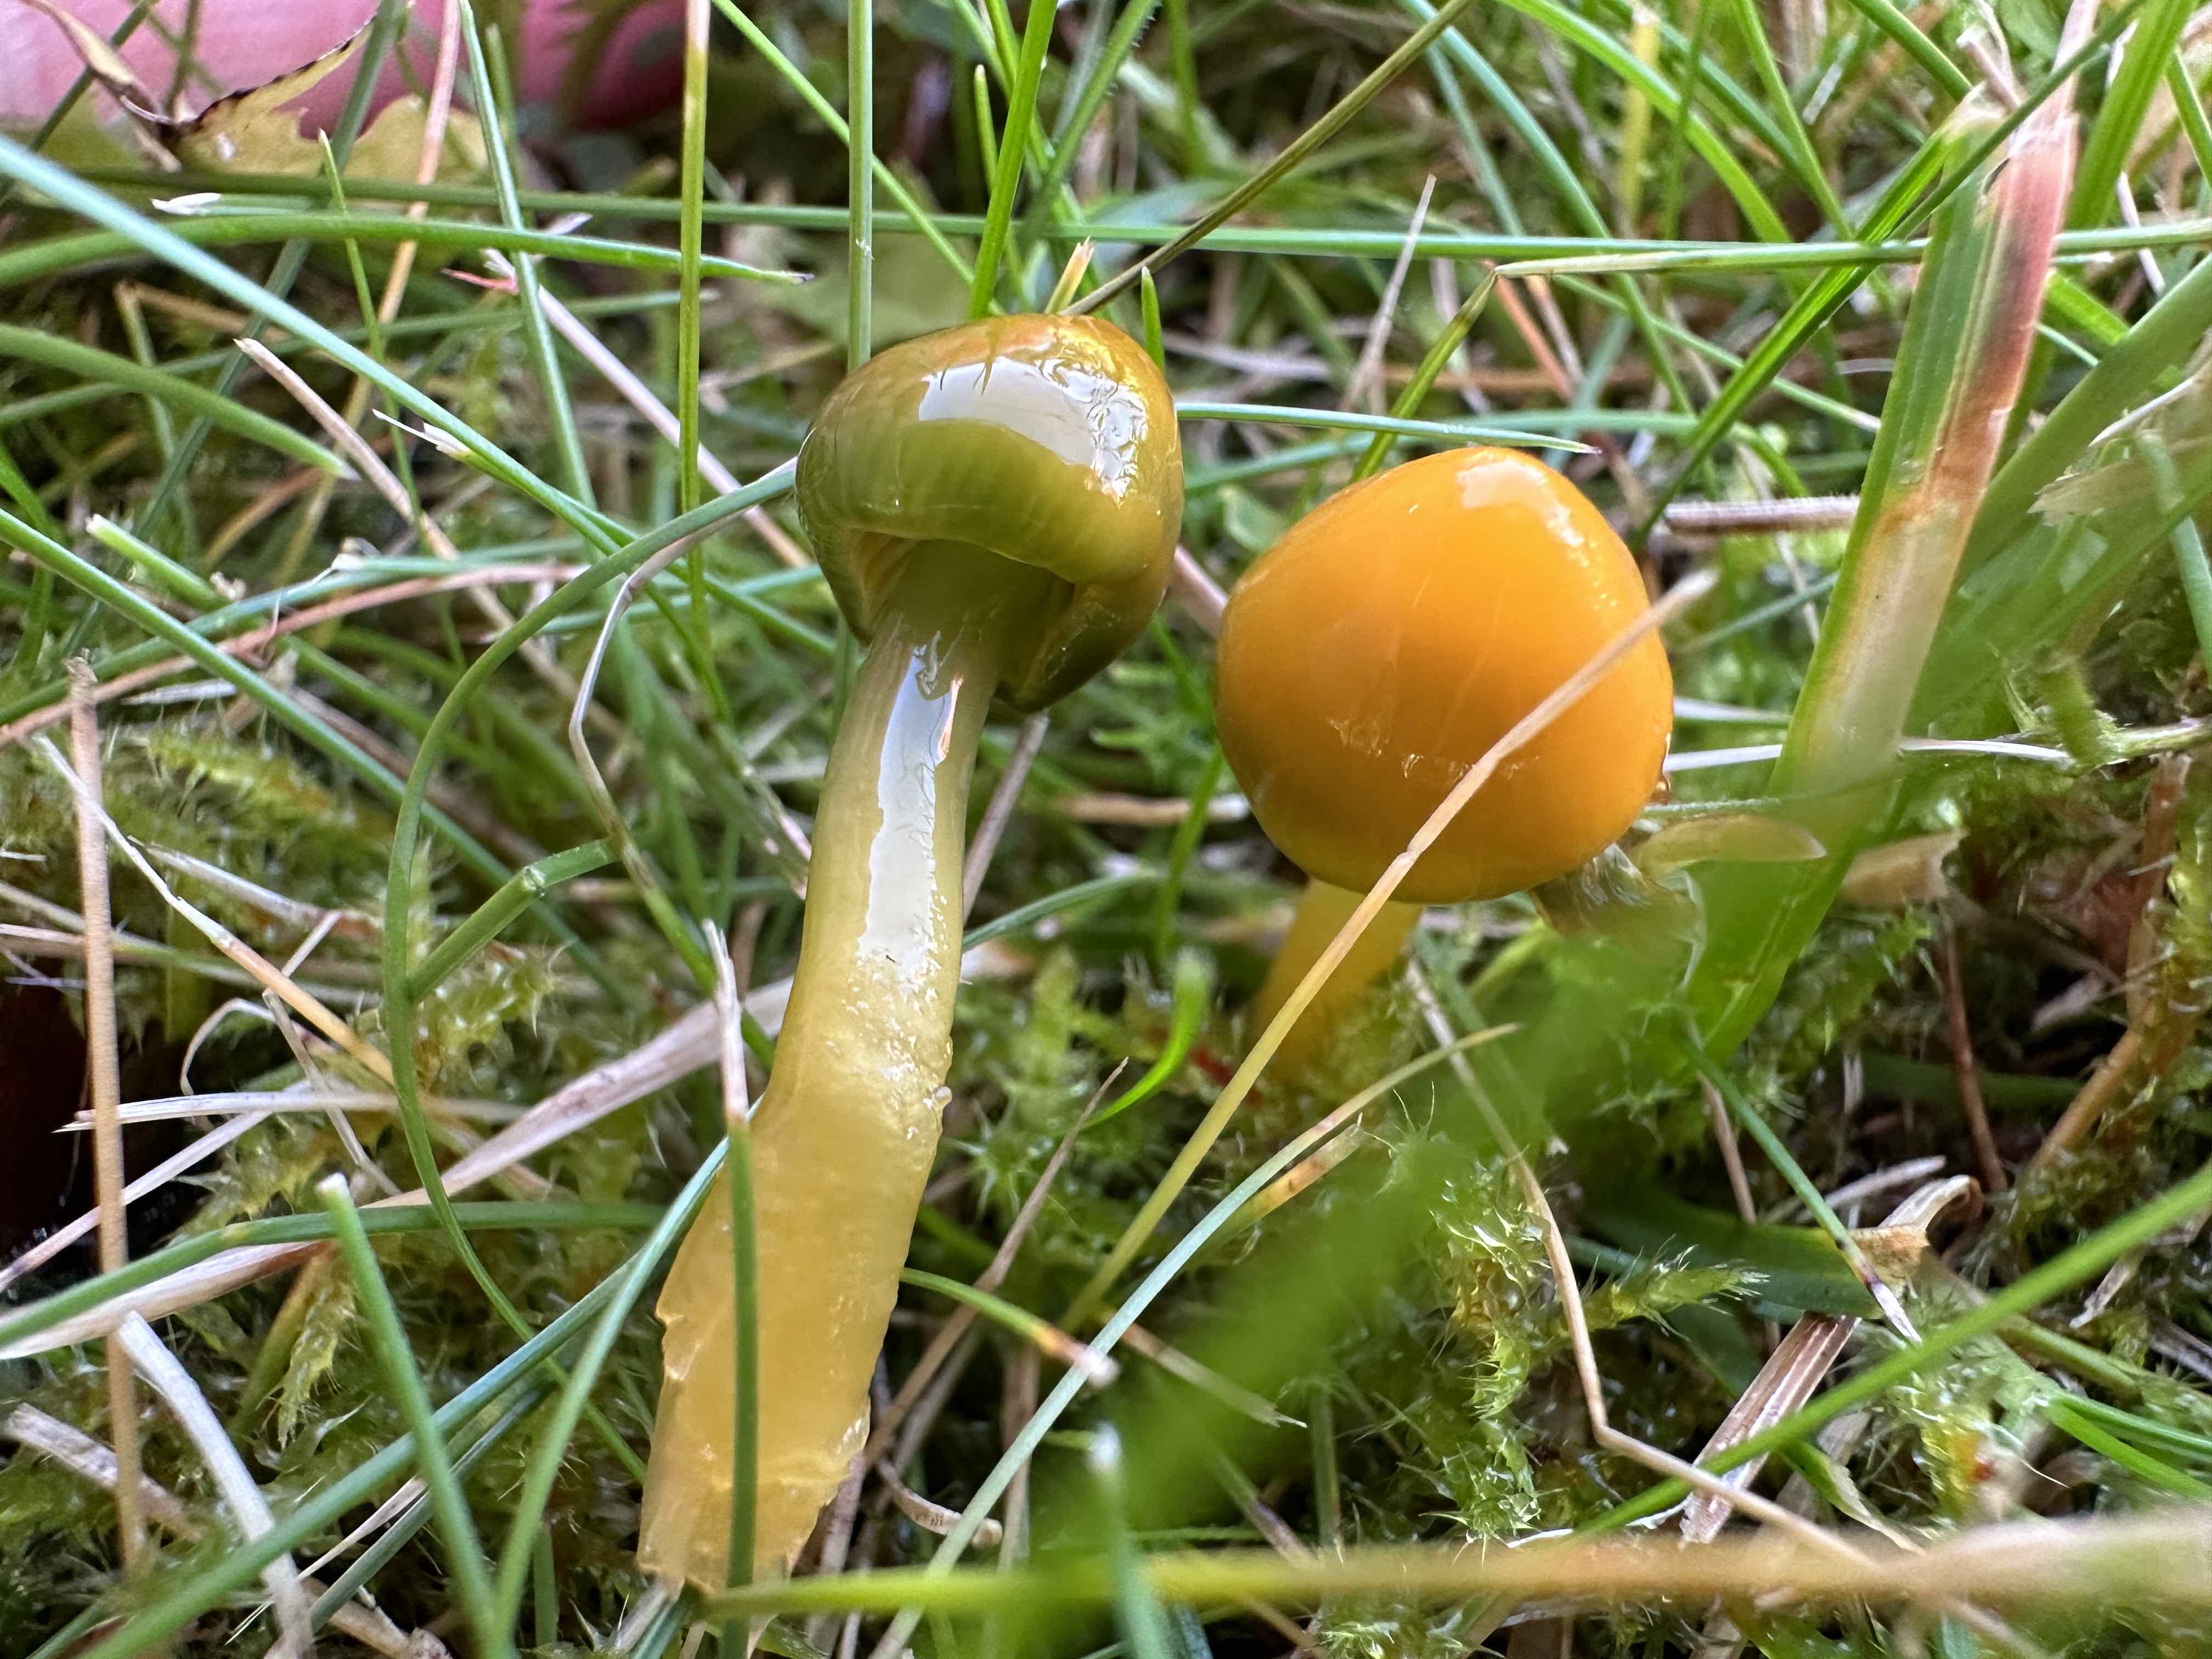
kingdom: Fungi
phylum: Basidiomycota
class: Agaricomycetes
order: Agaricales
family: Hygrophoraceae
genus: Gliophorus
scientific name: Gliophorus psittacinus
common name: papegøje-vokshat
